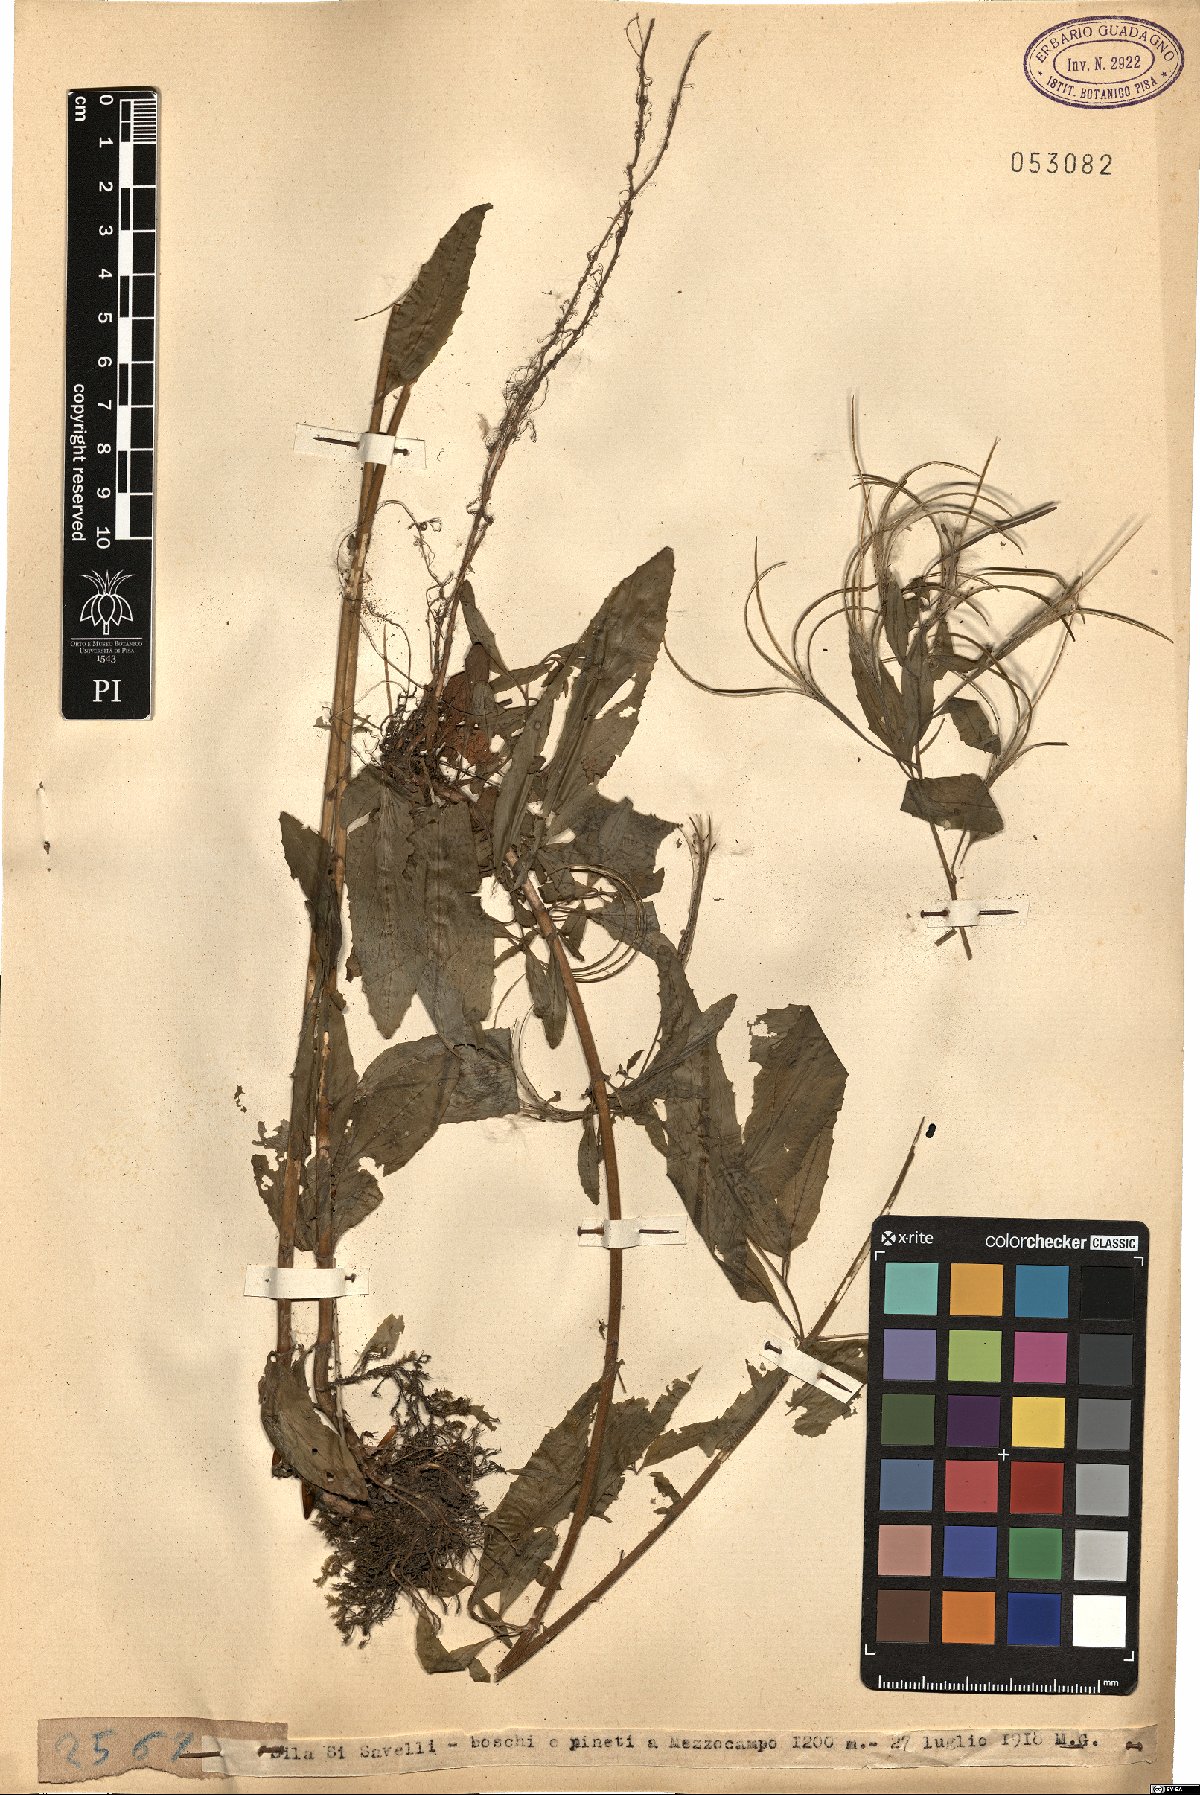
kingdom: Plantae
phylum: Tracheophyta
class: Magnoliopsida
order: Myrtales
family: Onagraceae
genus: Epilobium
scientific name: Epilobium
